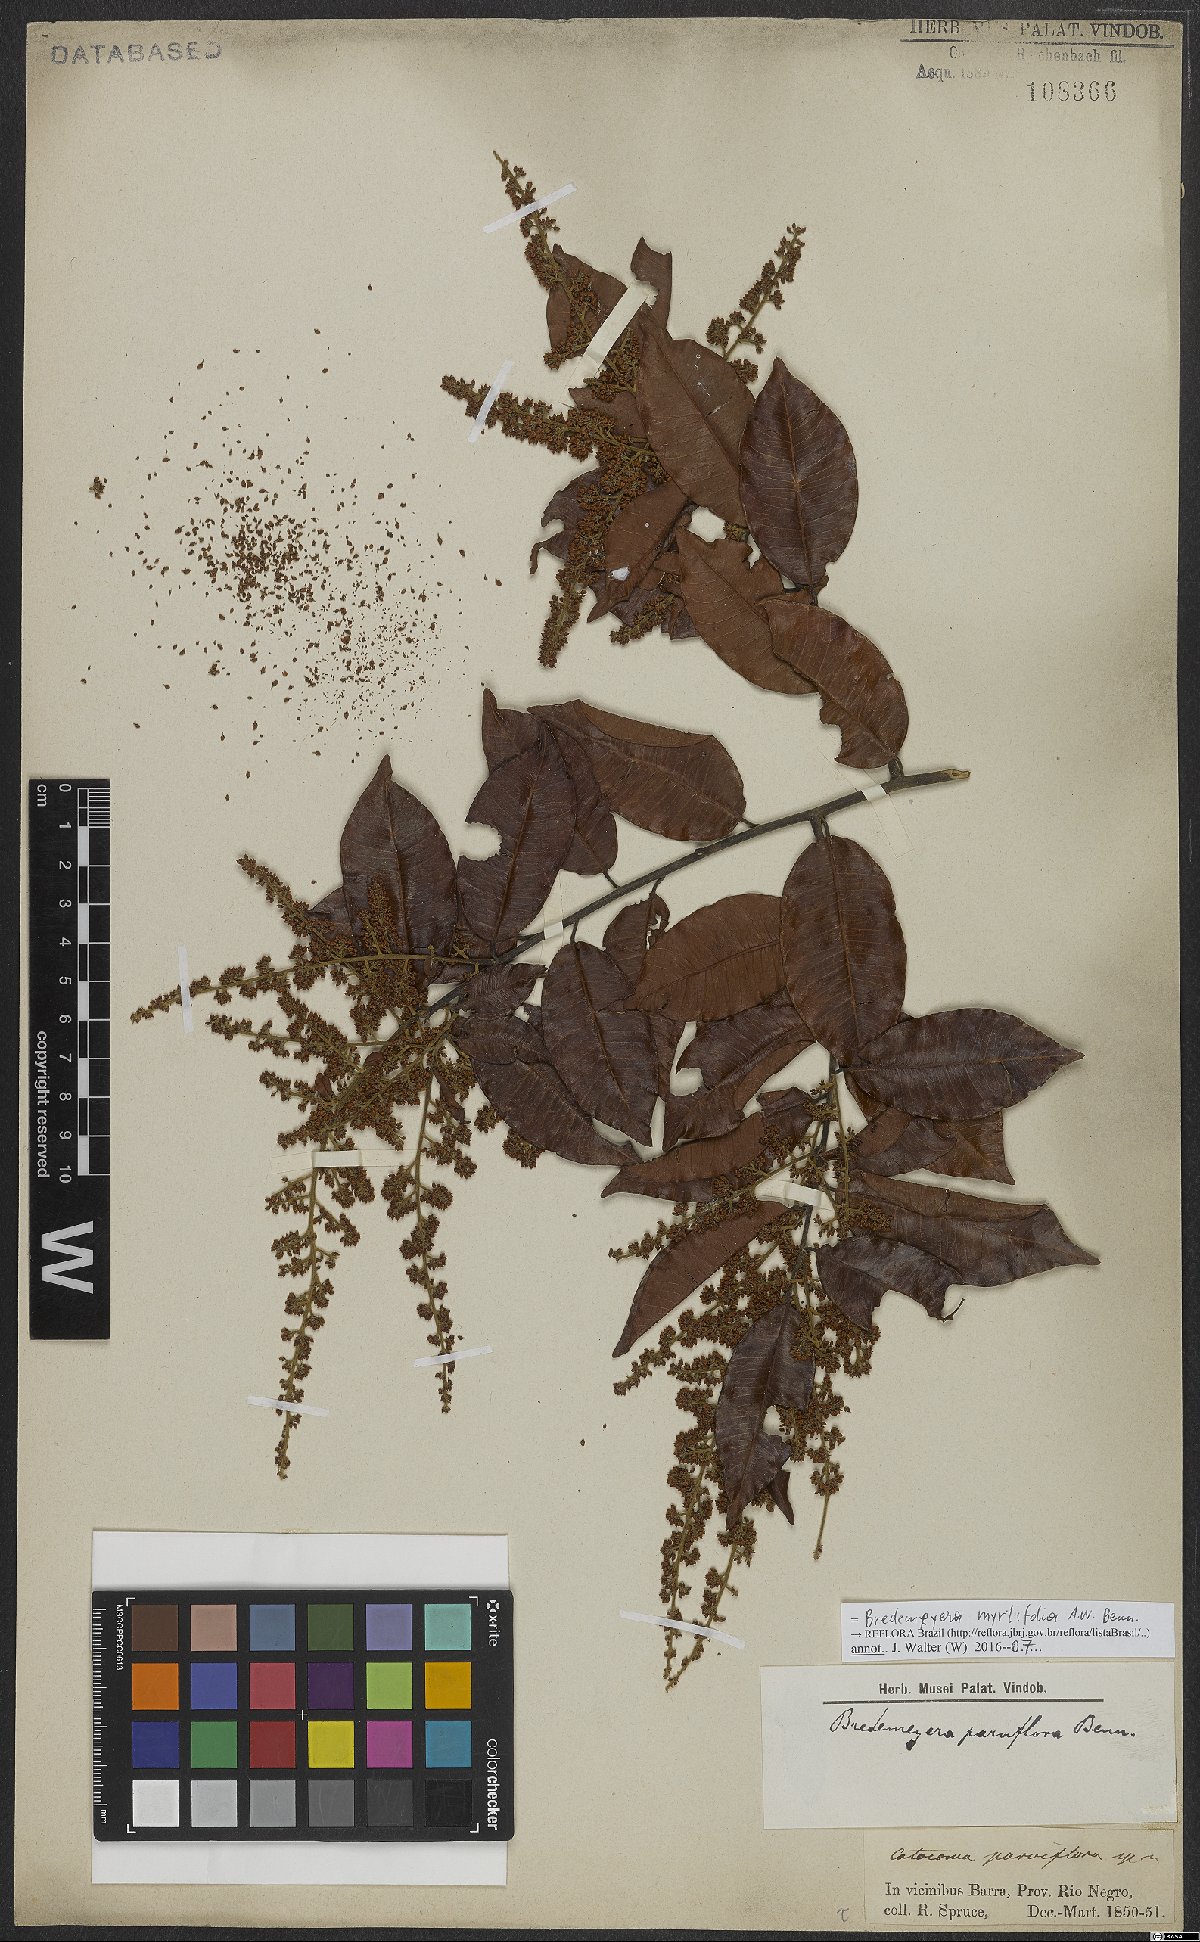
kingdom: Plantae
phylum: Tracheophyta
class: Magnoliopsida
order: Fabales
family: Polygalaceae
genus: Bredemeyera
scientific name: Bredemeyera myrtifolia
